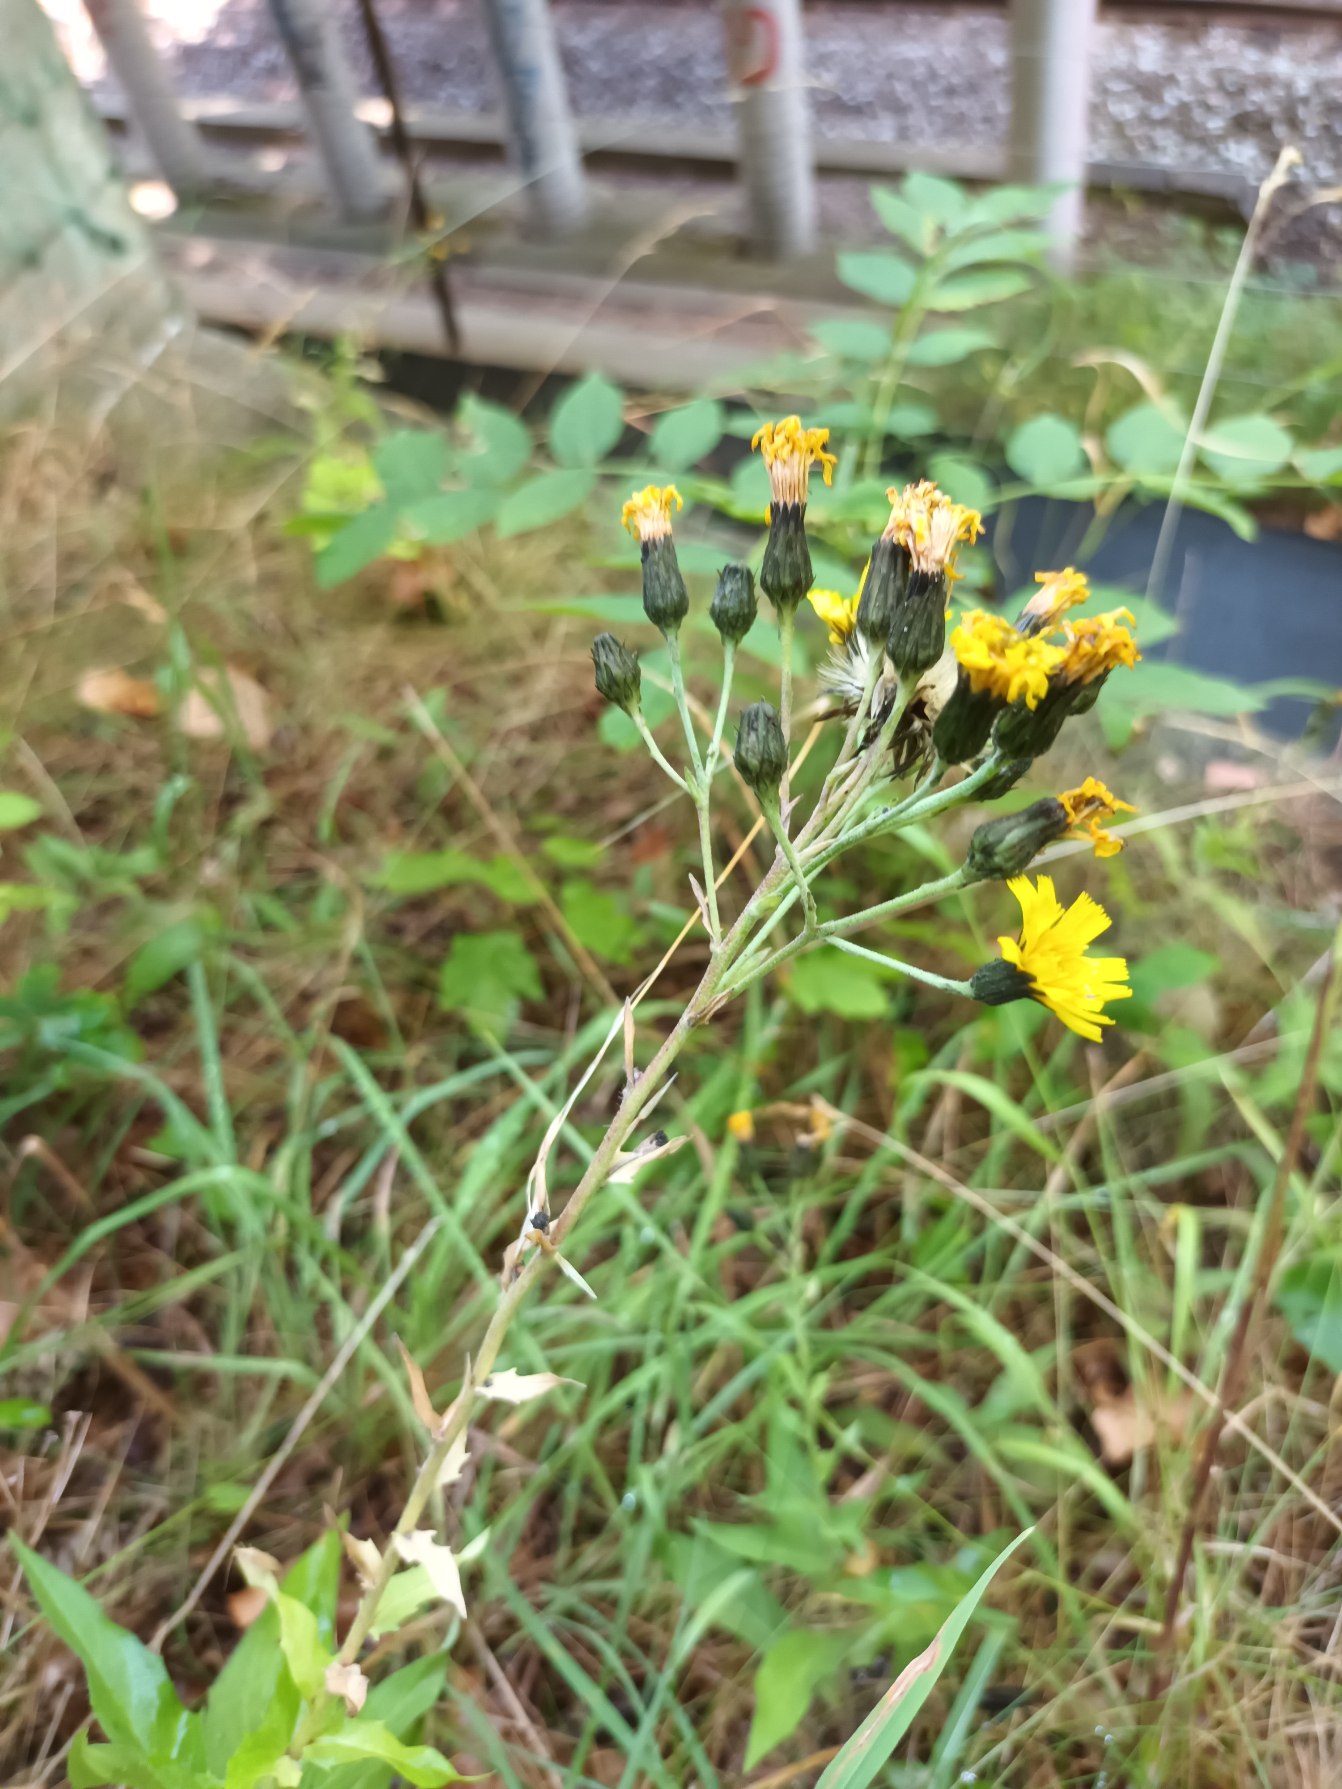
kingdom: Plantae
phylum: Tracheophyta
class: Magnoliopsida
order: Asterales
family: Asteraceae
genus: Hieracium
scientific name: Hieracium sabaudum
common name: Bredbladet høgeurt
